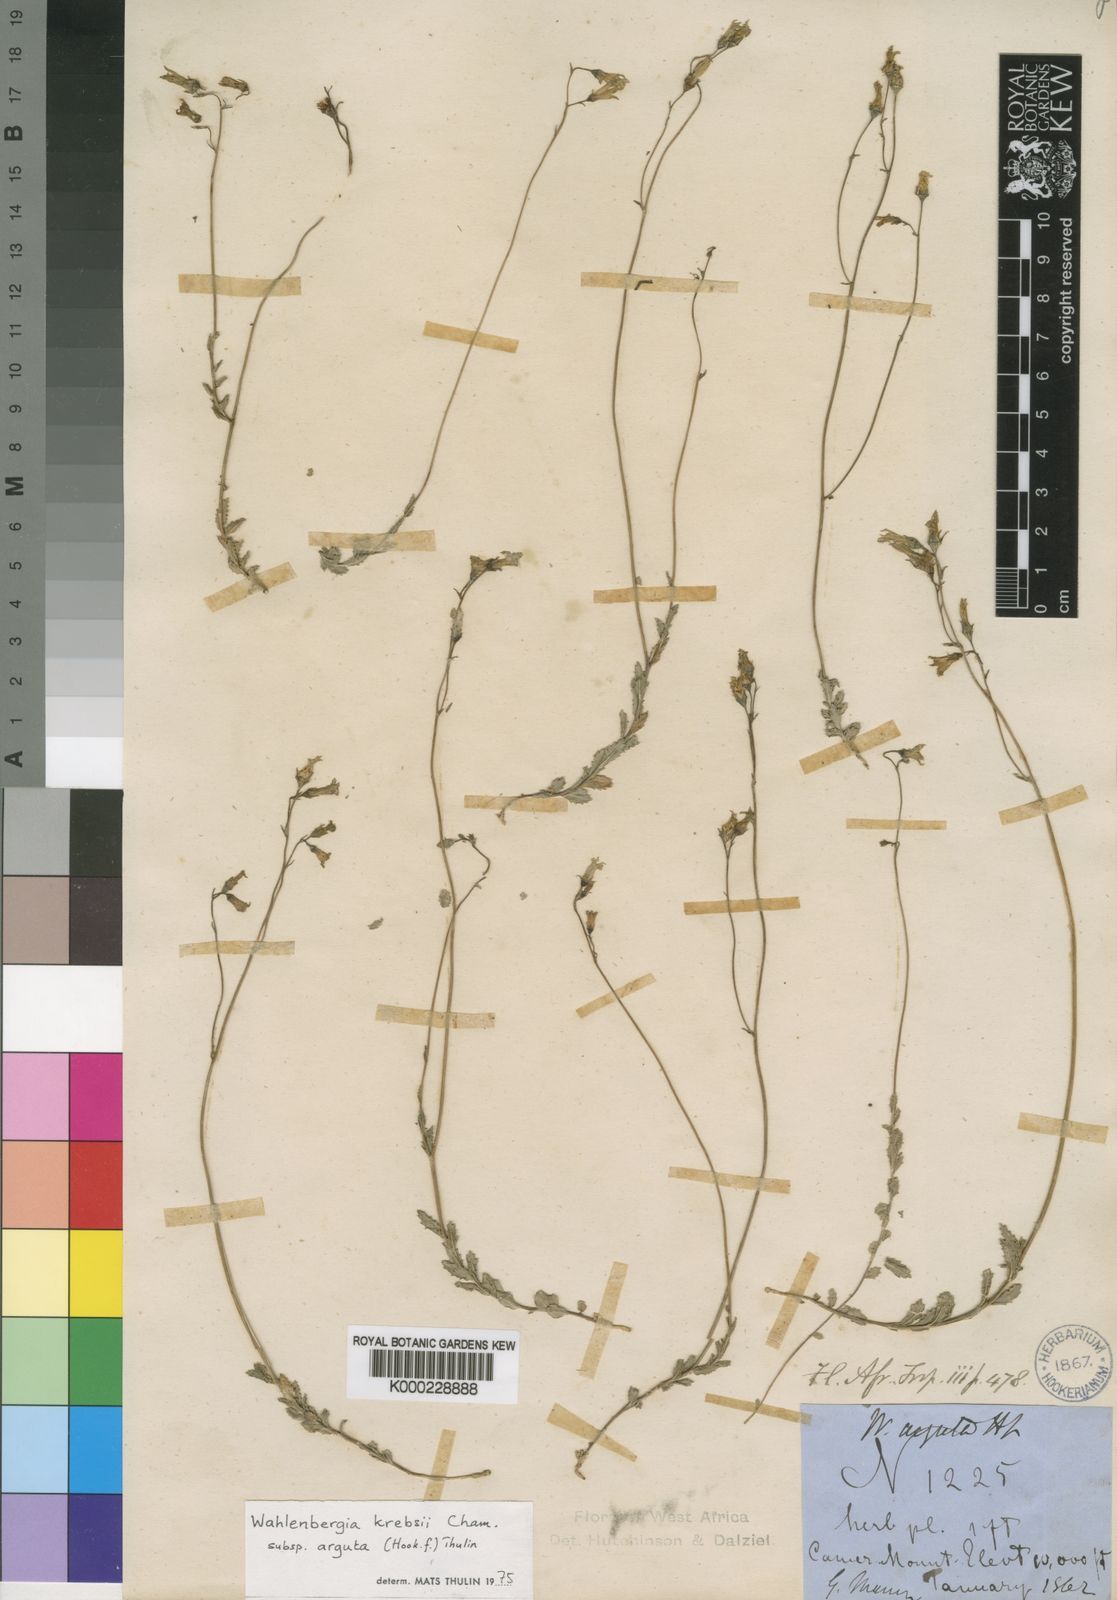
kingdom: Plantae
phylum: Tracheophyta
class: Magnoliopsida
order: Asterales
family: Campanulaceae
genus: Wahlenbergia
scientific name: Wahlenbergia krebsii
